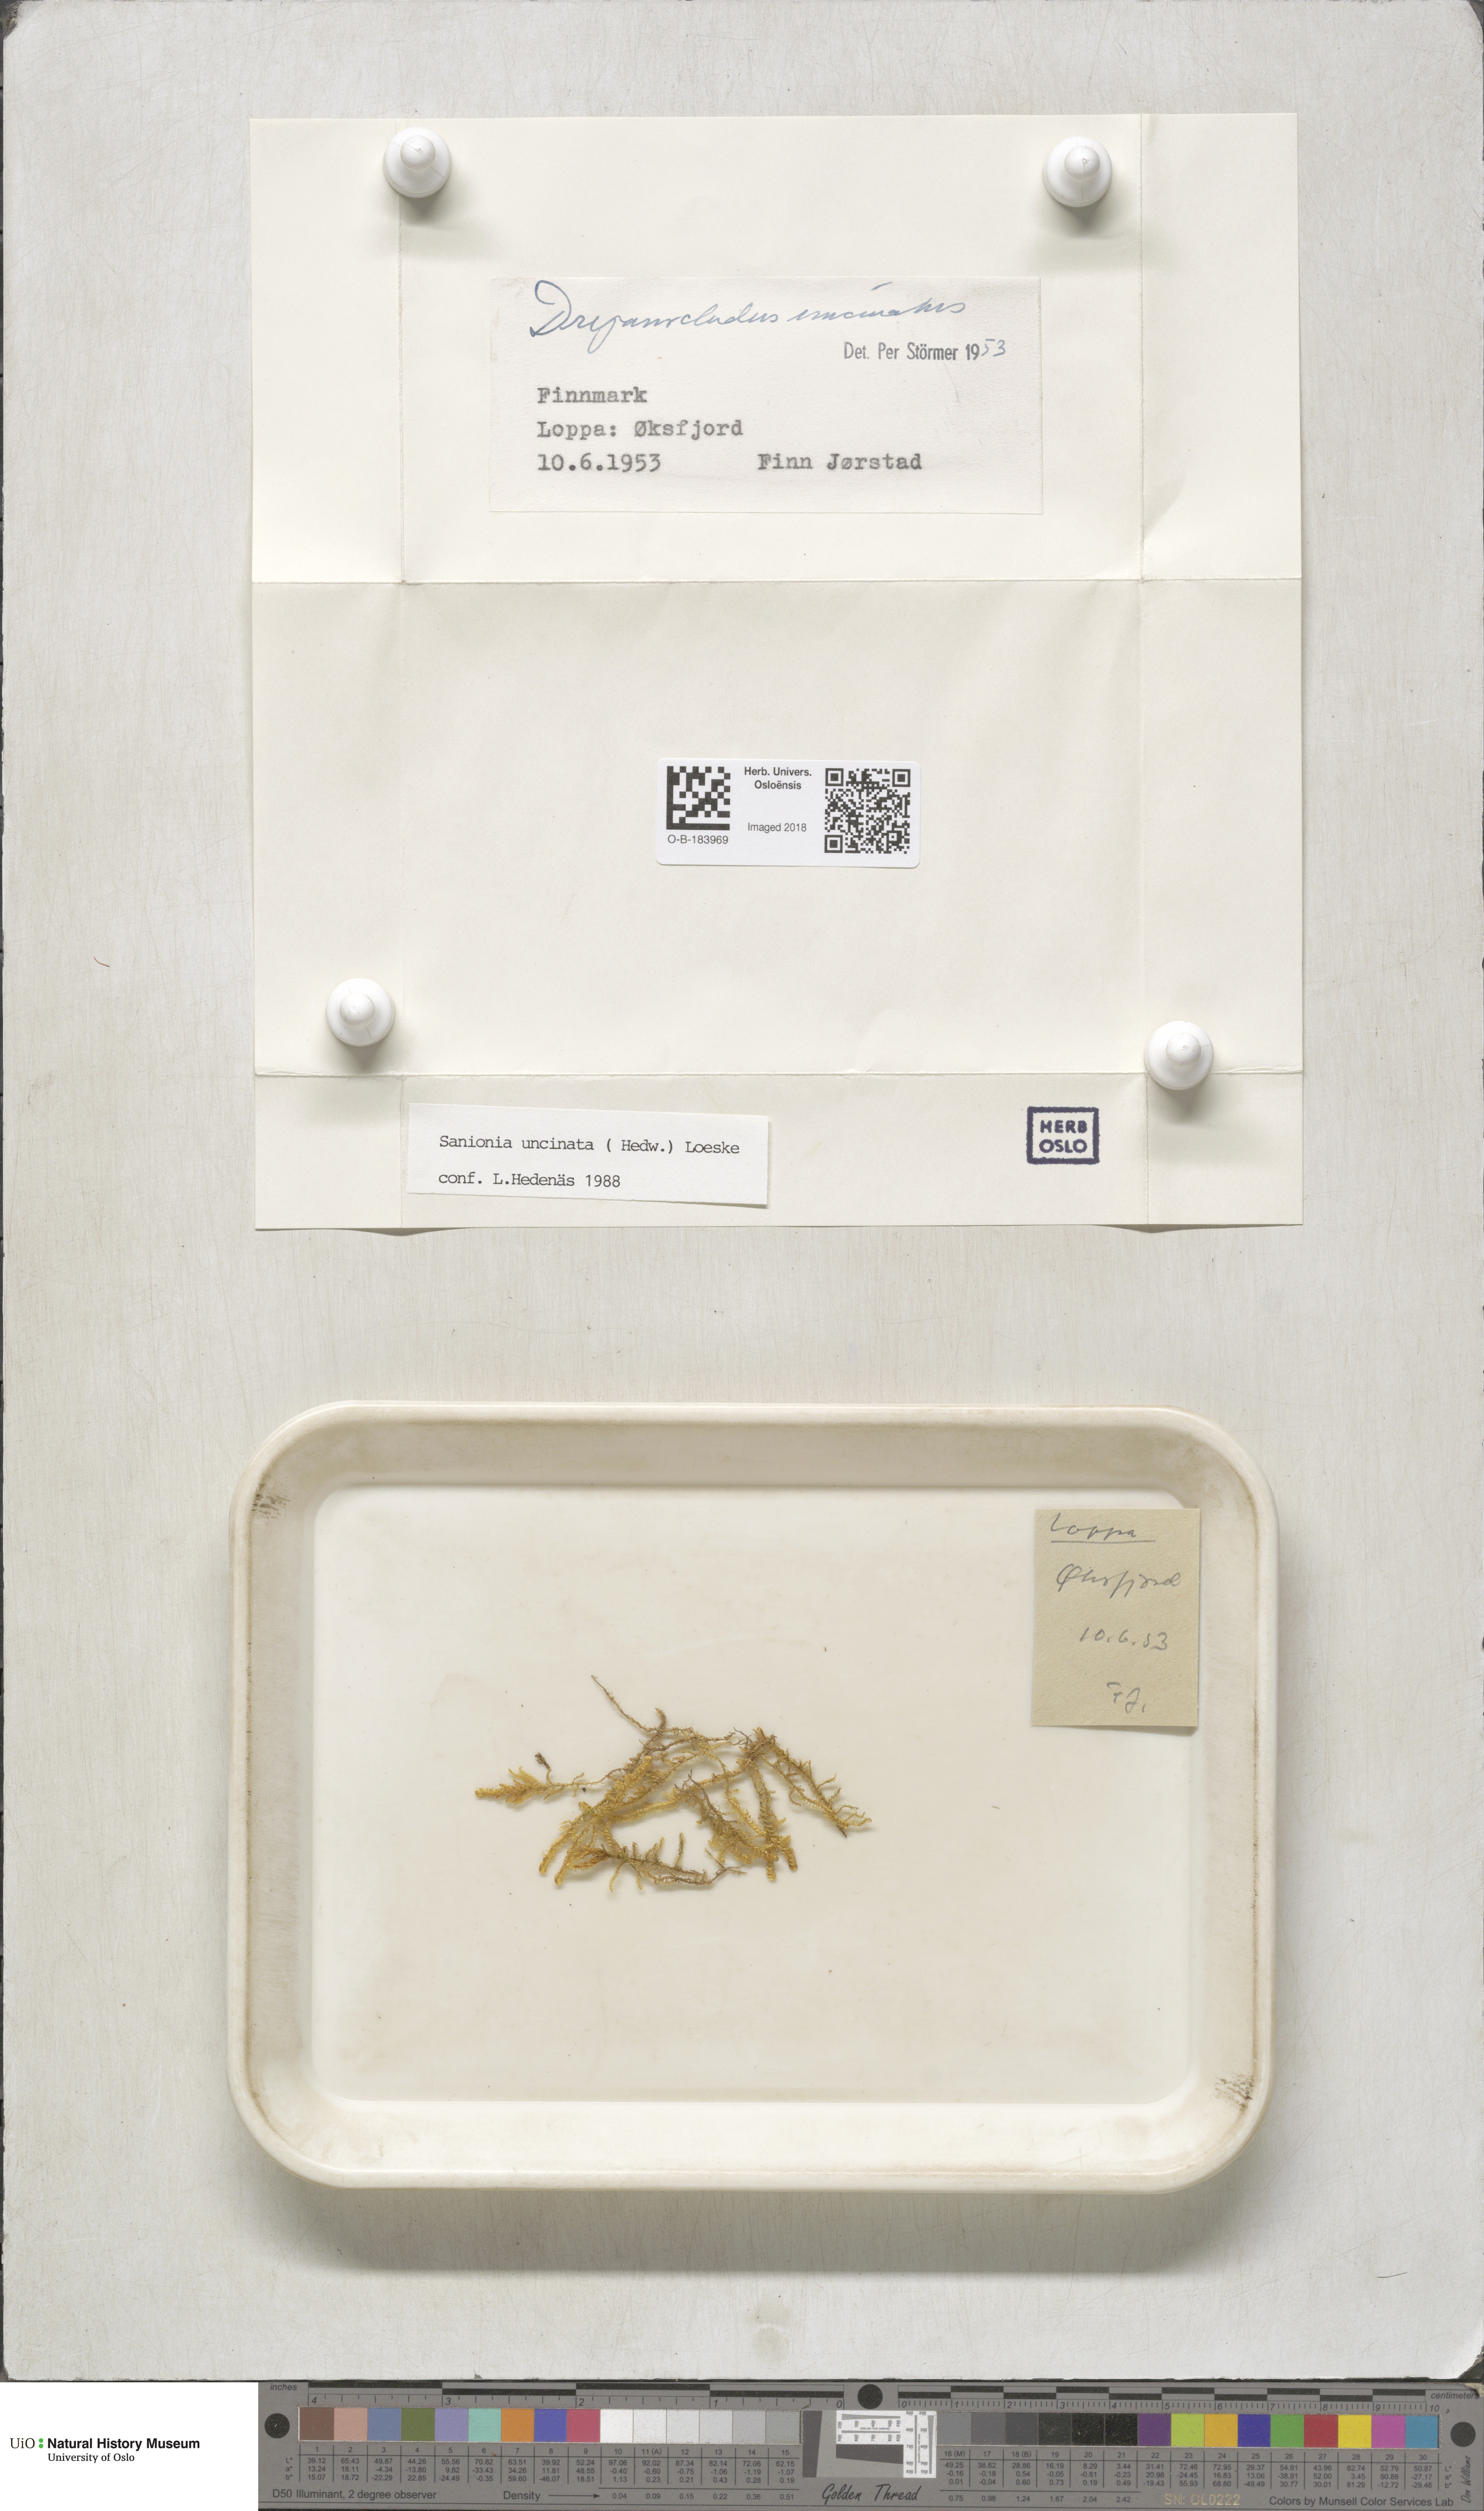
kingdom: Plantae
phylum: Bryophyta
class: Bryopsida
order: Hypnales
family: Scorpidiaceae
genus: Sanionia
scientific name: Sanionia uncinata
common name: Sickle moss
